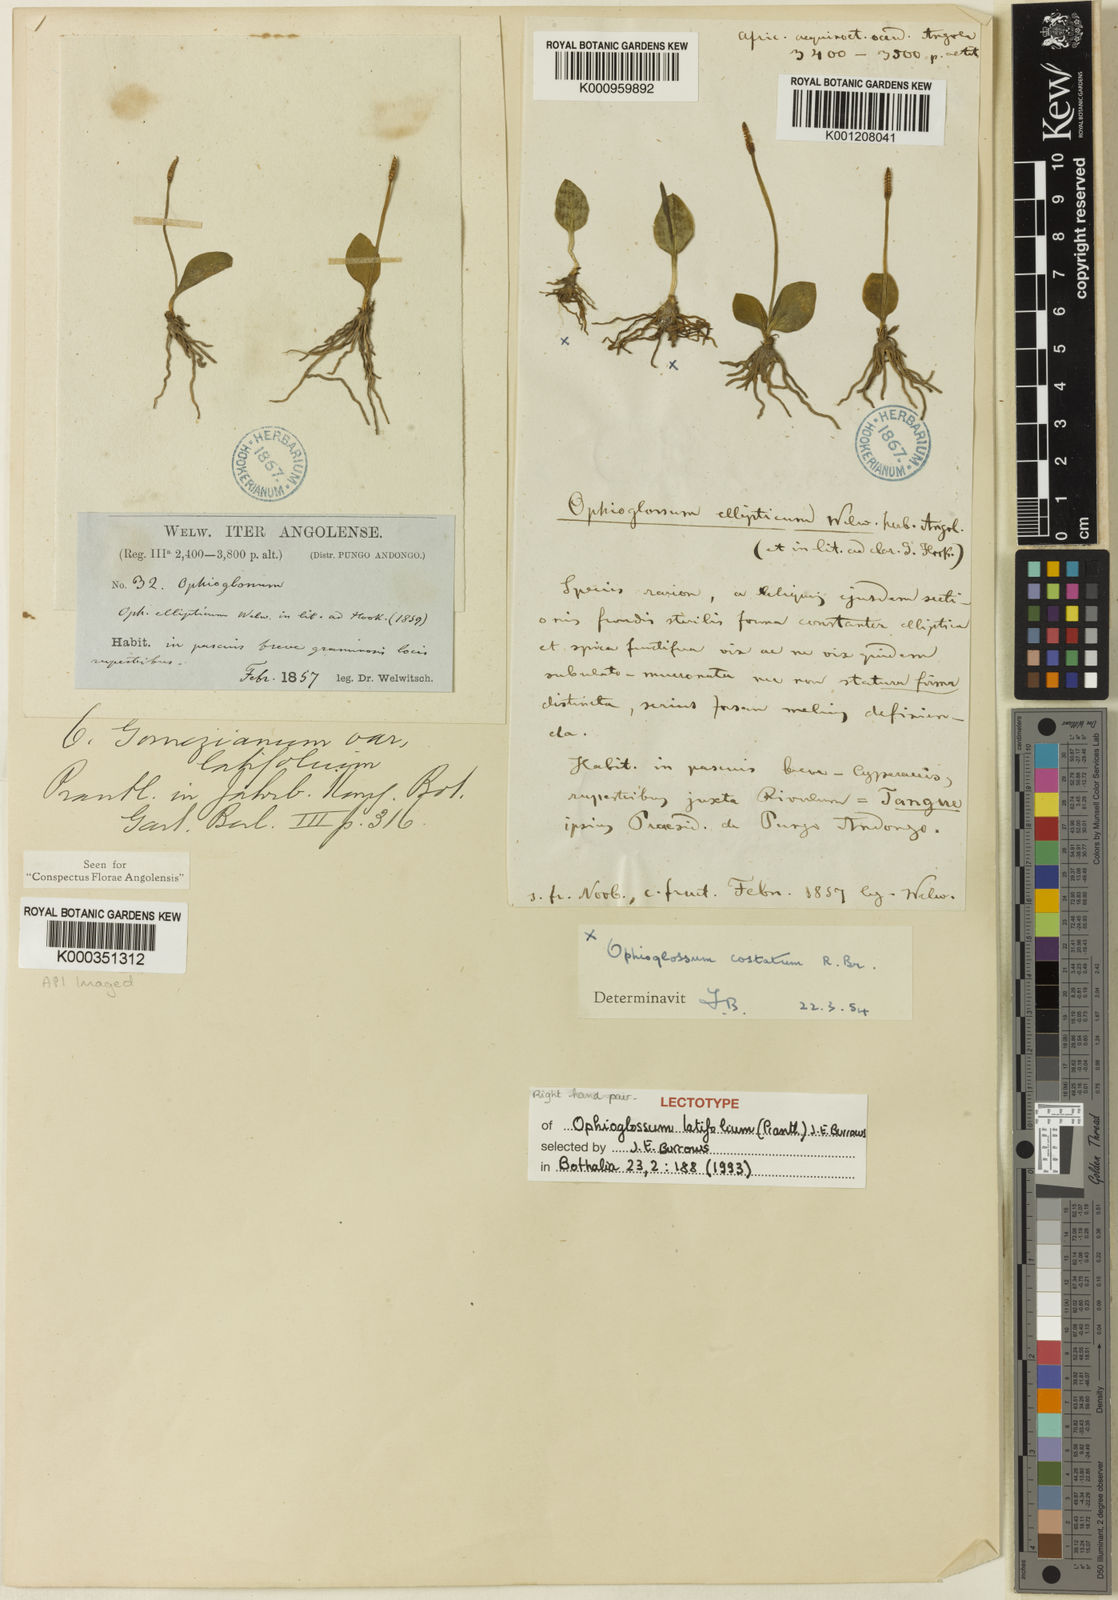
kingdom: Plantae
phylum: Tracheophyta
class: Polypodiopsida
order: Ophioglossales
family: Ophioglossaceae
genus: Ophioglossum
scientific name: Ophioglossum latifolium
